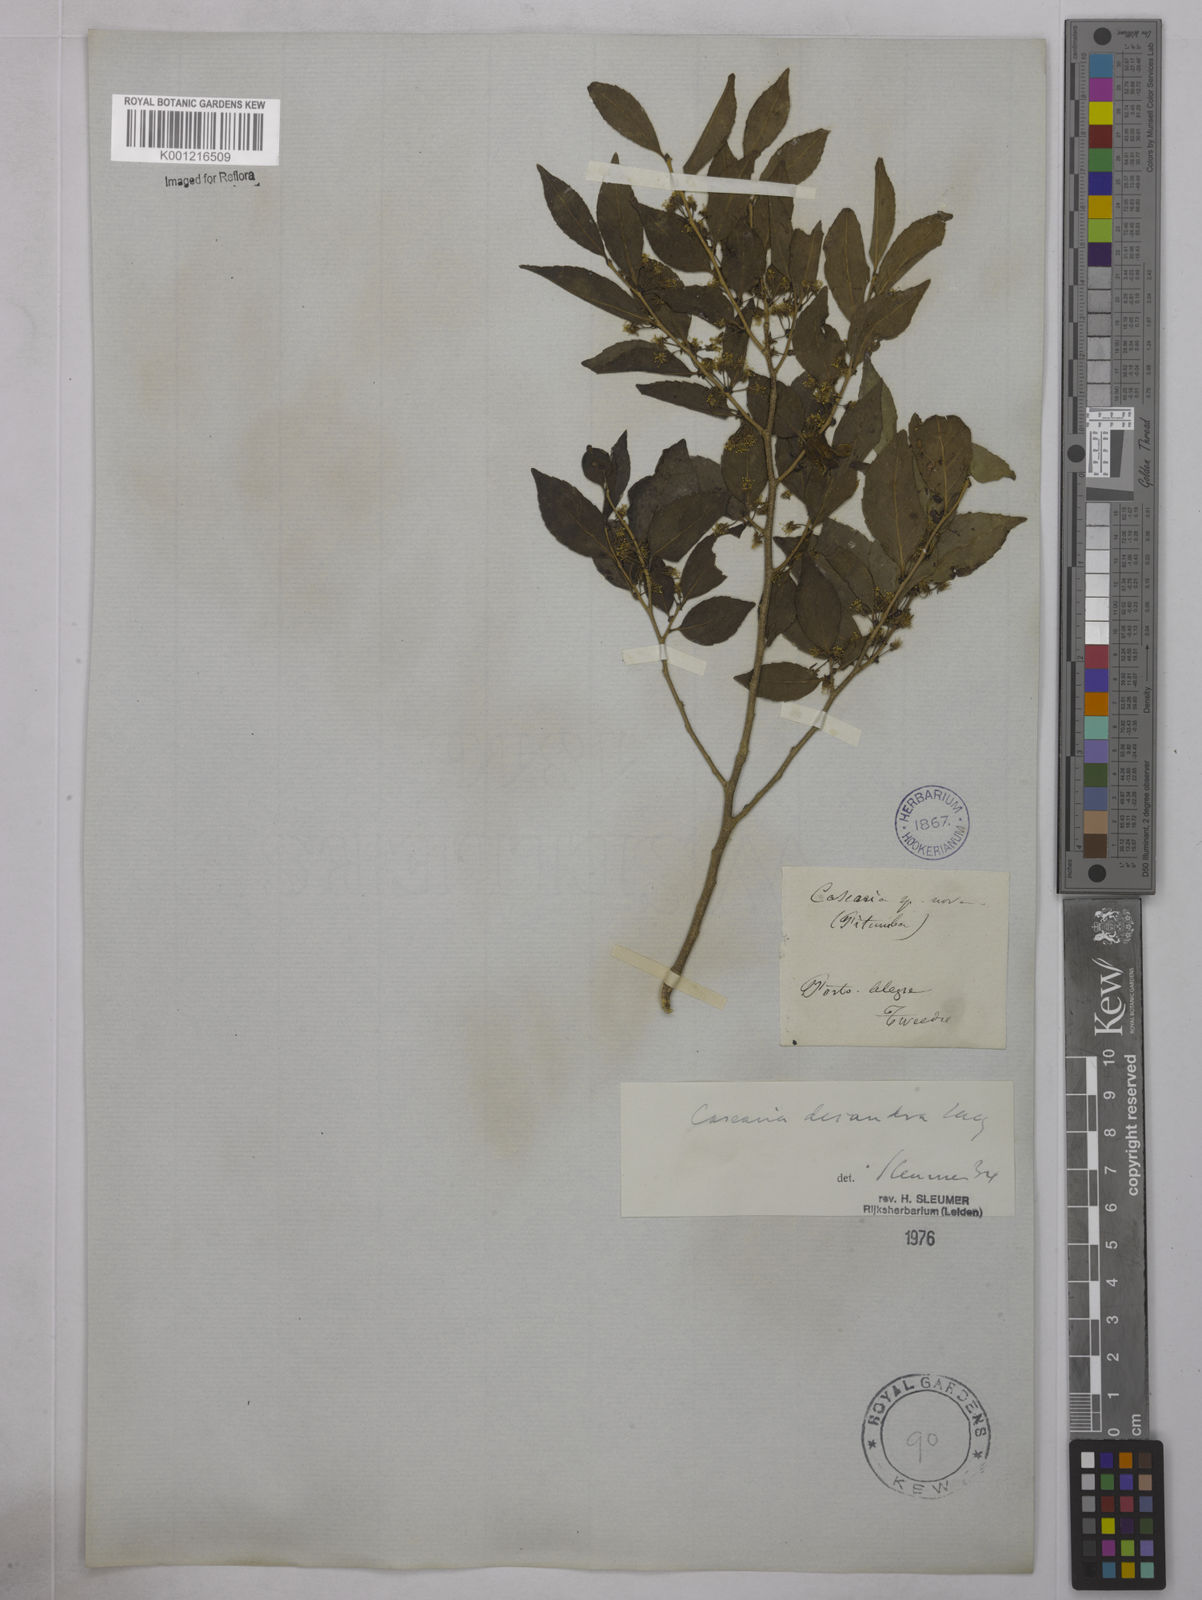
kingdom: Plantae
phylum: Tracheophyta
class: Magnoliopsida
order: Malpighiales
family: Salicaceae
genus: Casearia
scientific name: Casearia decandra
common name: Crack open
